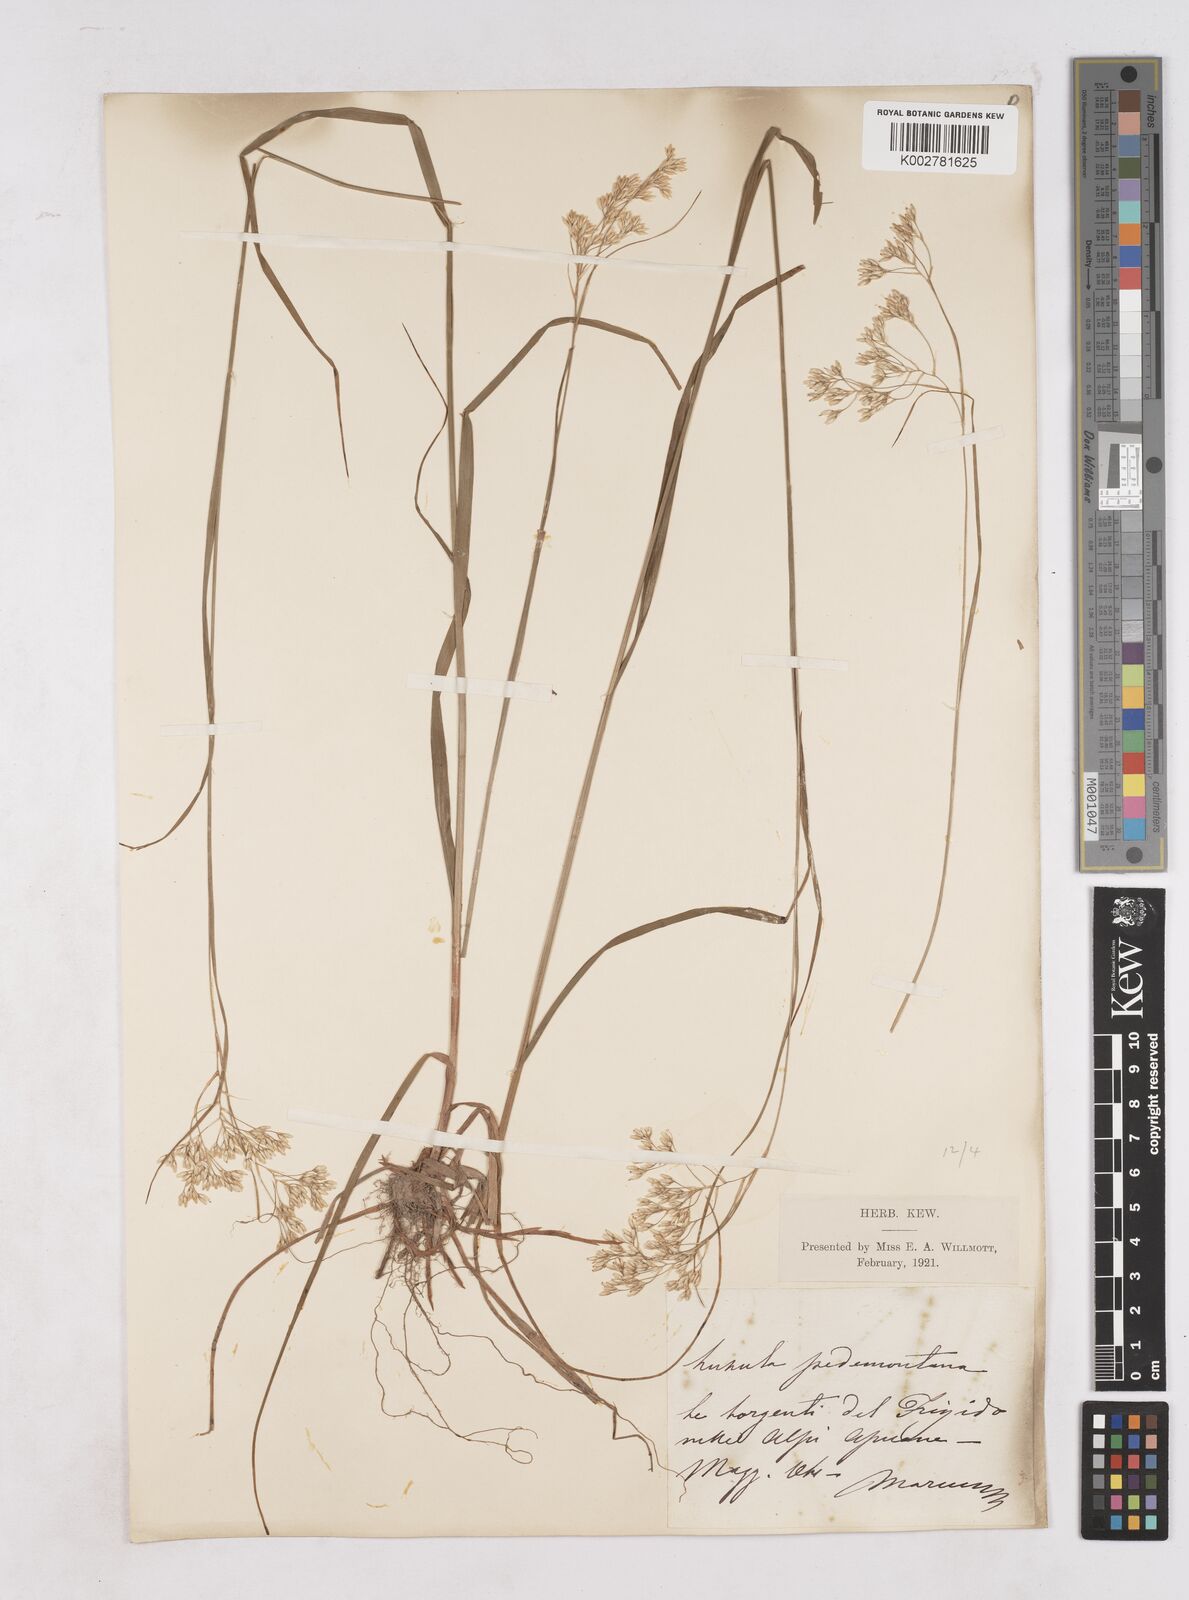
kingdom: Plantae
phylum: Tracheophyta
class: Liliopsida
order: Poales
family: Juncaceae
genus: Luzula
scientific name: Luzula pedemontana
